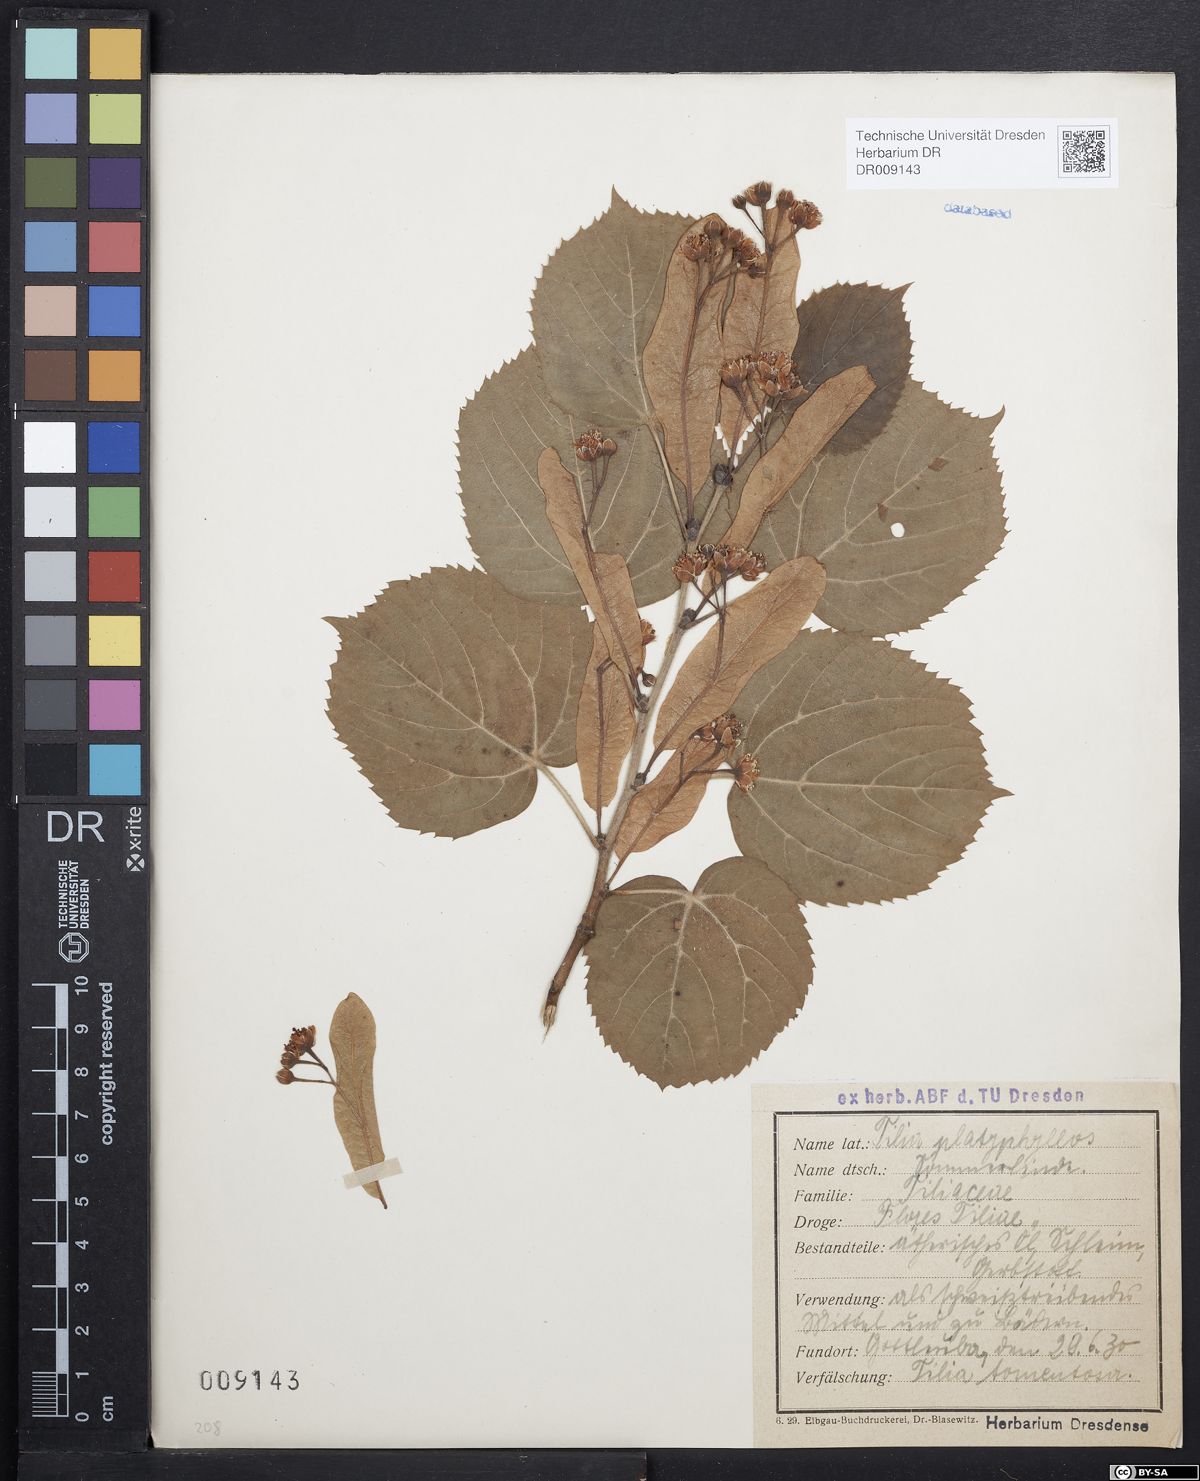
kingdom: Plantae
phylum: Tracheophyta
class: Magnoliopsida
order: Malvales
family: Malvaceae
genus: Tilia
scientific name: Tilia platyphyllos
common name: Large-leaved lime
